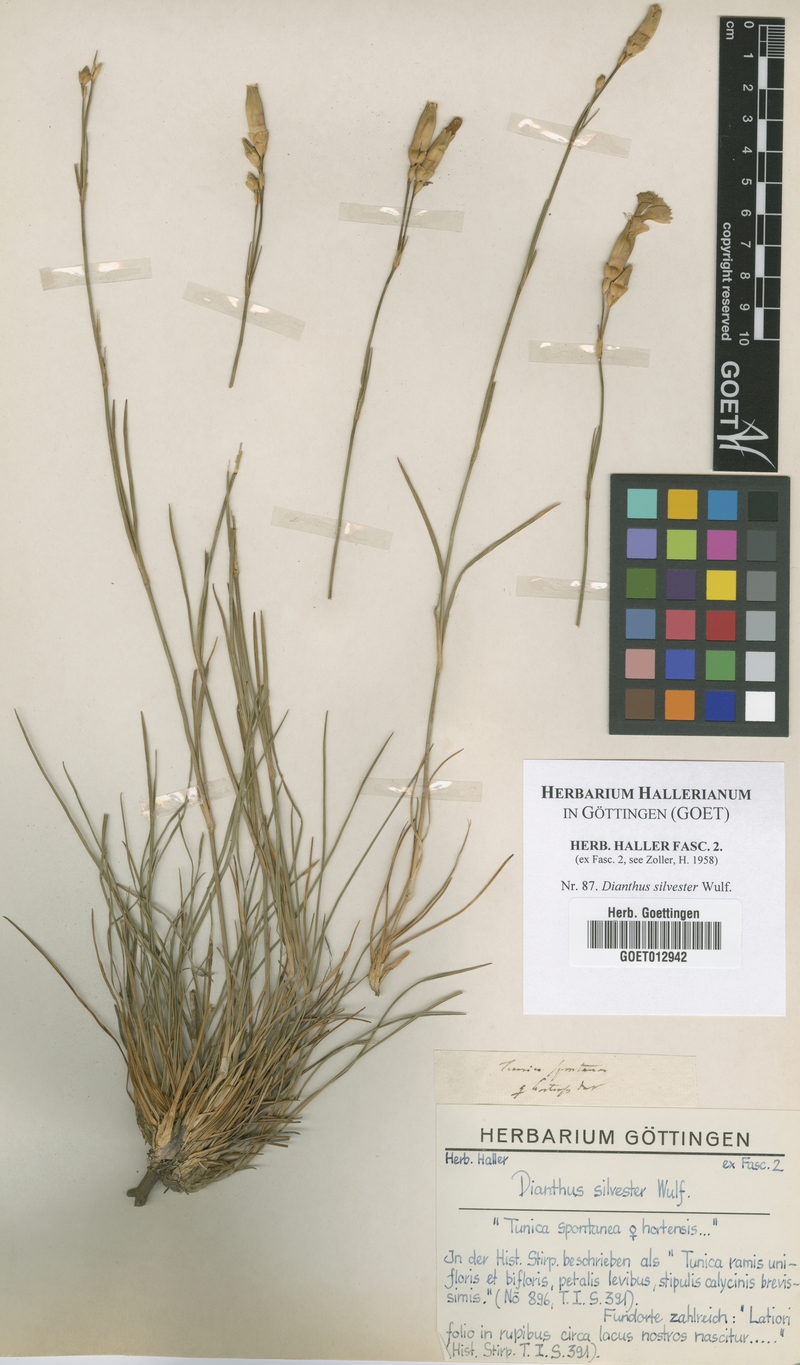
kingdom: Plantae
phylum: Tracheophyta
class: Magnoliopsida
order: Caryophyllales
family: Caryophyllaceae
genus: Dianthus
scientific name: Dianthus silvester
